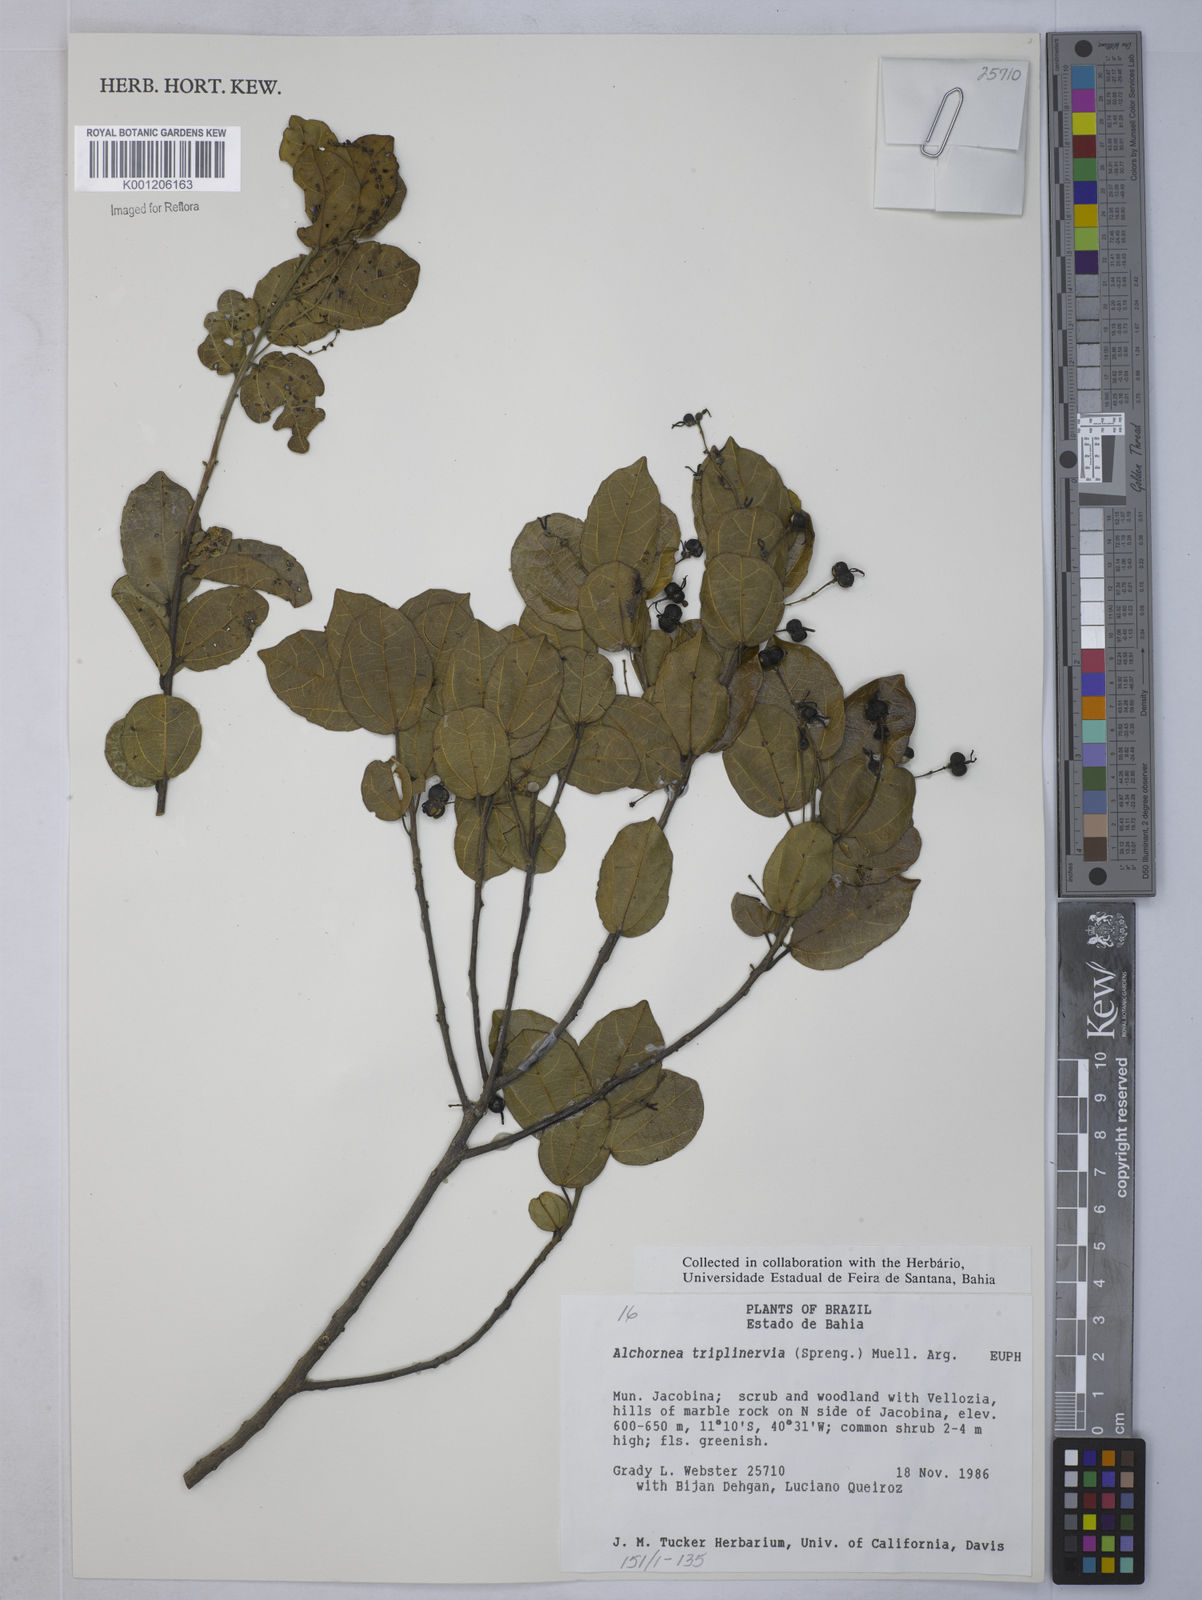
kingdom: Plantae
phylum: Tracheophyta
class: Magnoliopsida
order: Malpighiales
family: Euphorbiaceae
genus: Alchornea
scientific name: Alchornea
